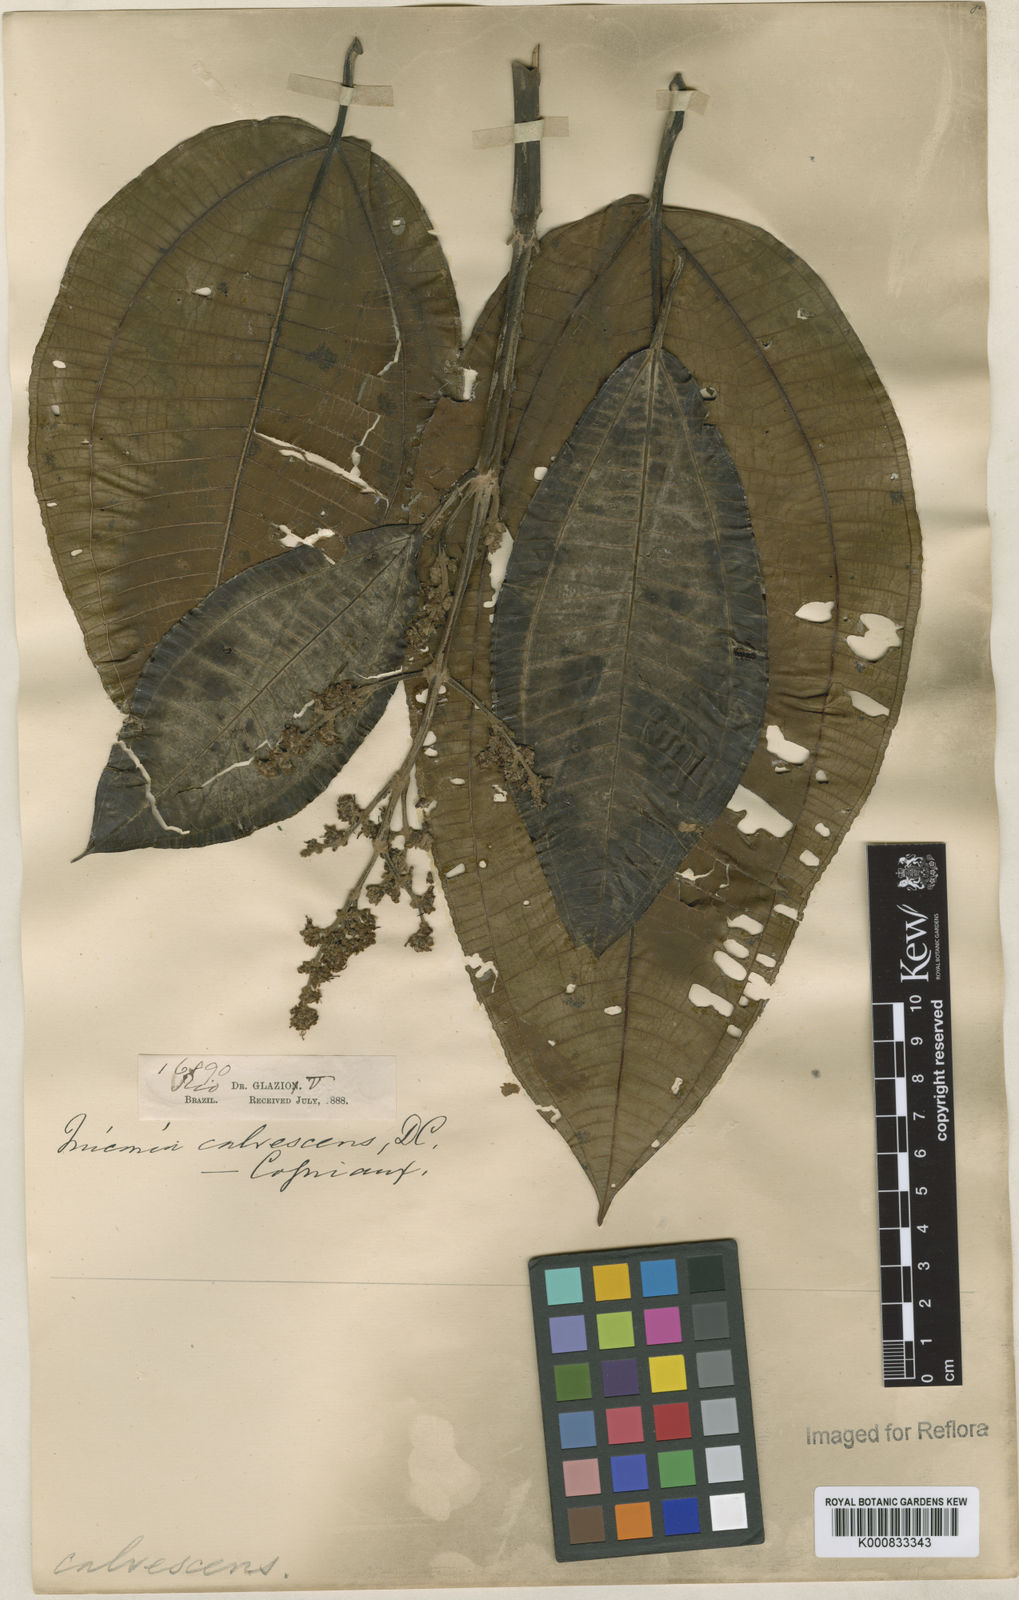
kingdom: Plantae
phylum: Tracheophyta
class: Magnoliopsida
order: Myrtales
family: Melastomataceae
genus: Miconia
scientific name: Miconia calvescens
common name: Purple plague
